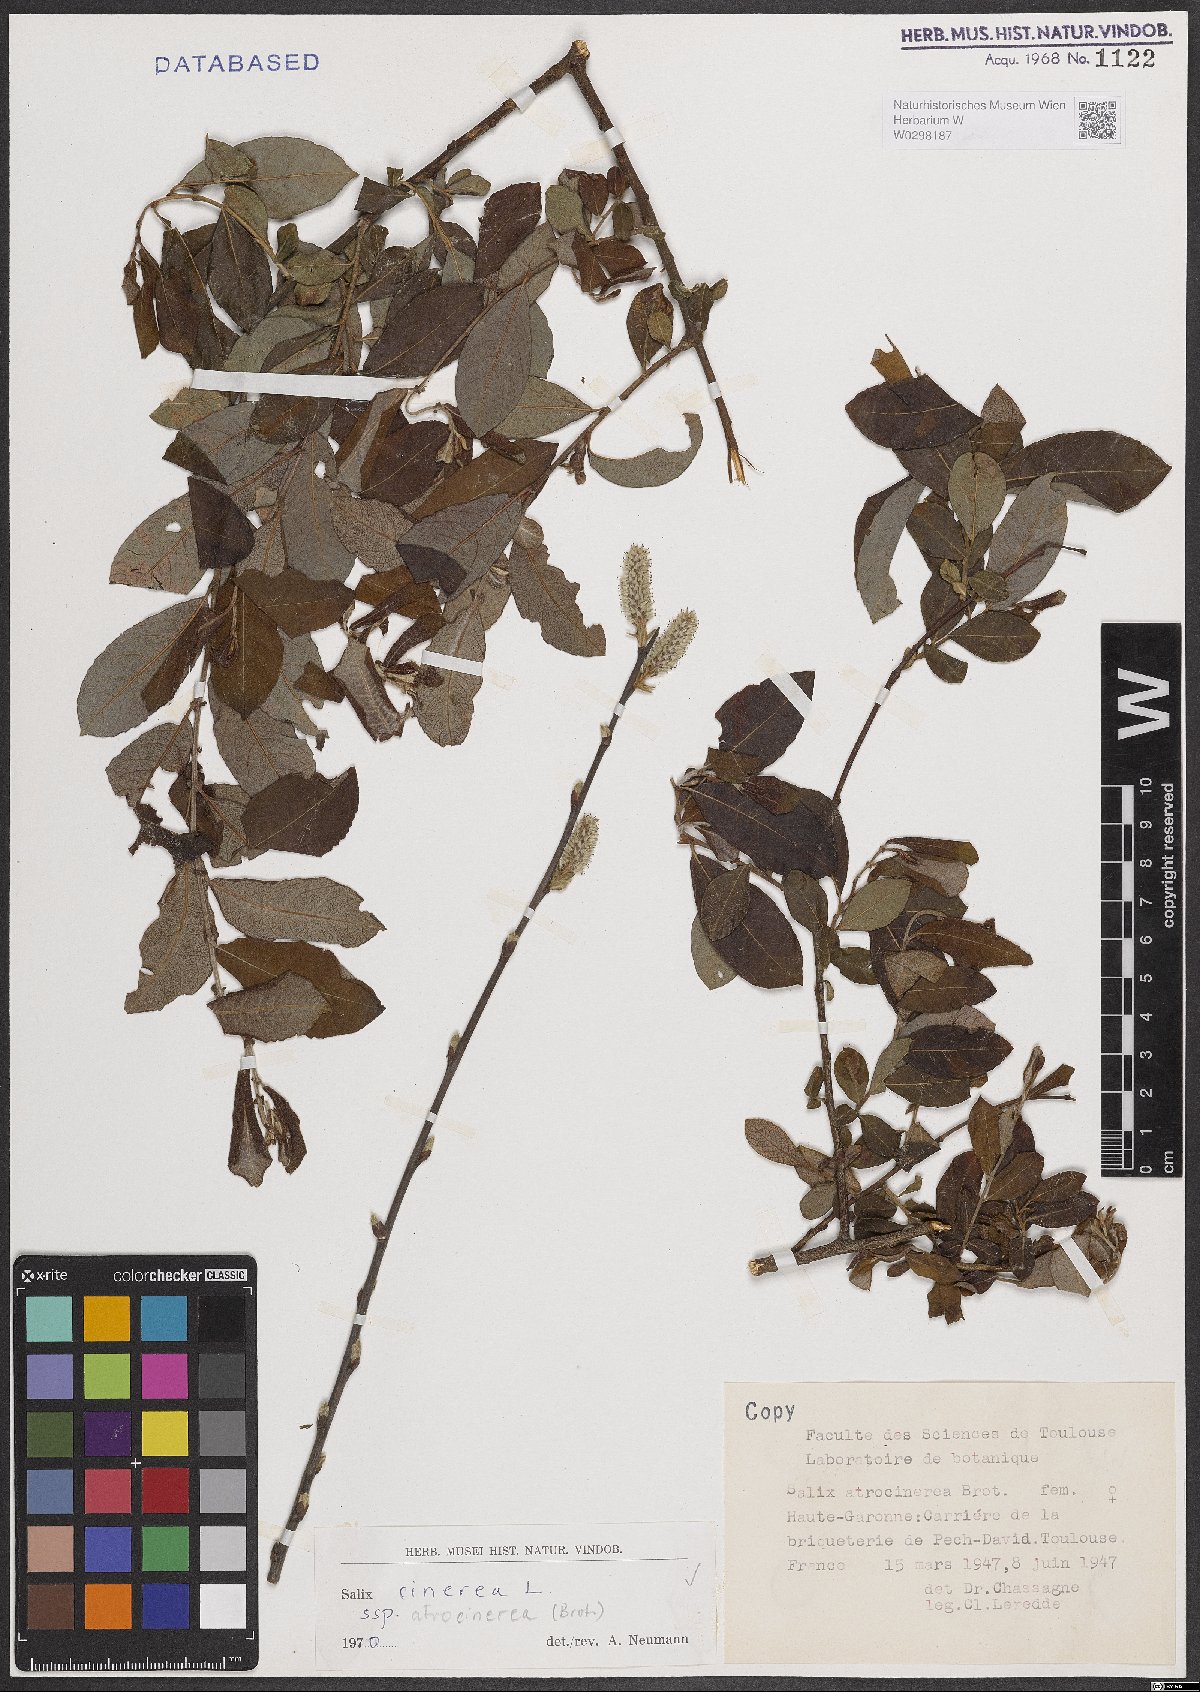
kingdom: Plantae
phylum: Tracheophyta
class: Magnoliopsida
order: Malpighiales
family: Salicaceae
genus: Salix
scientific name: Salix atrocinerea
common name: Rusty willow
